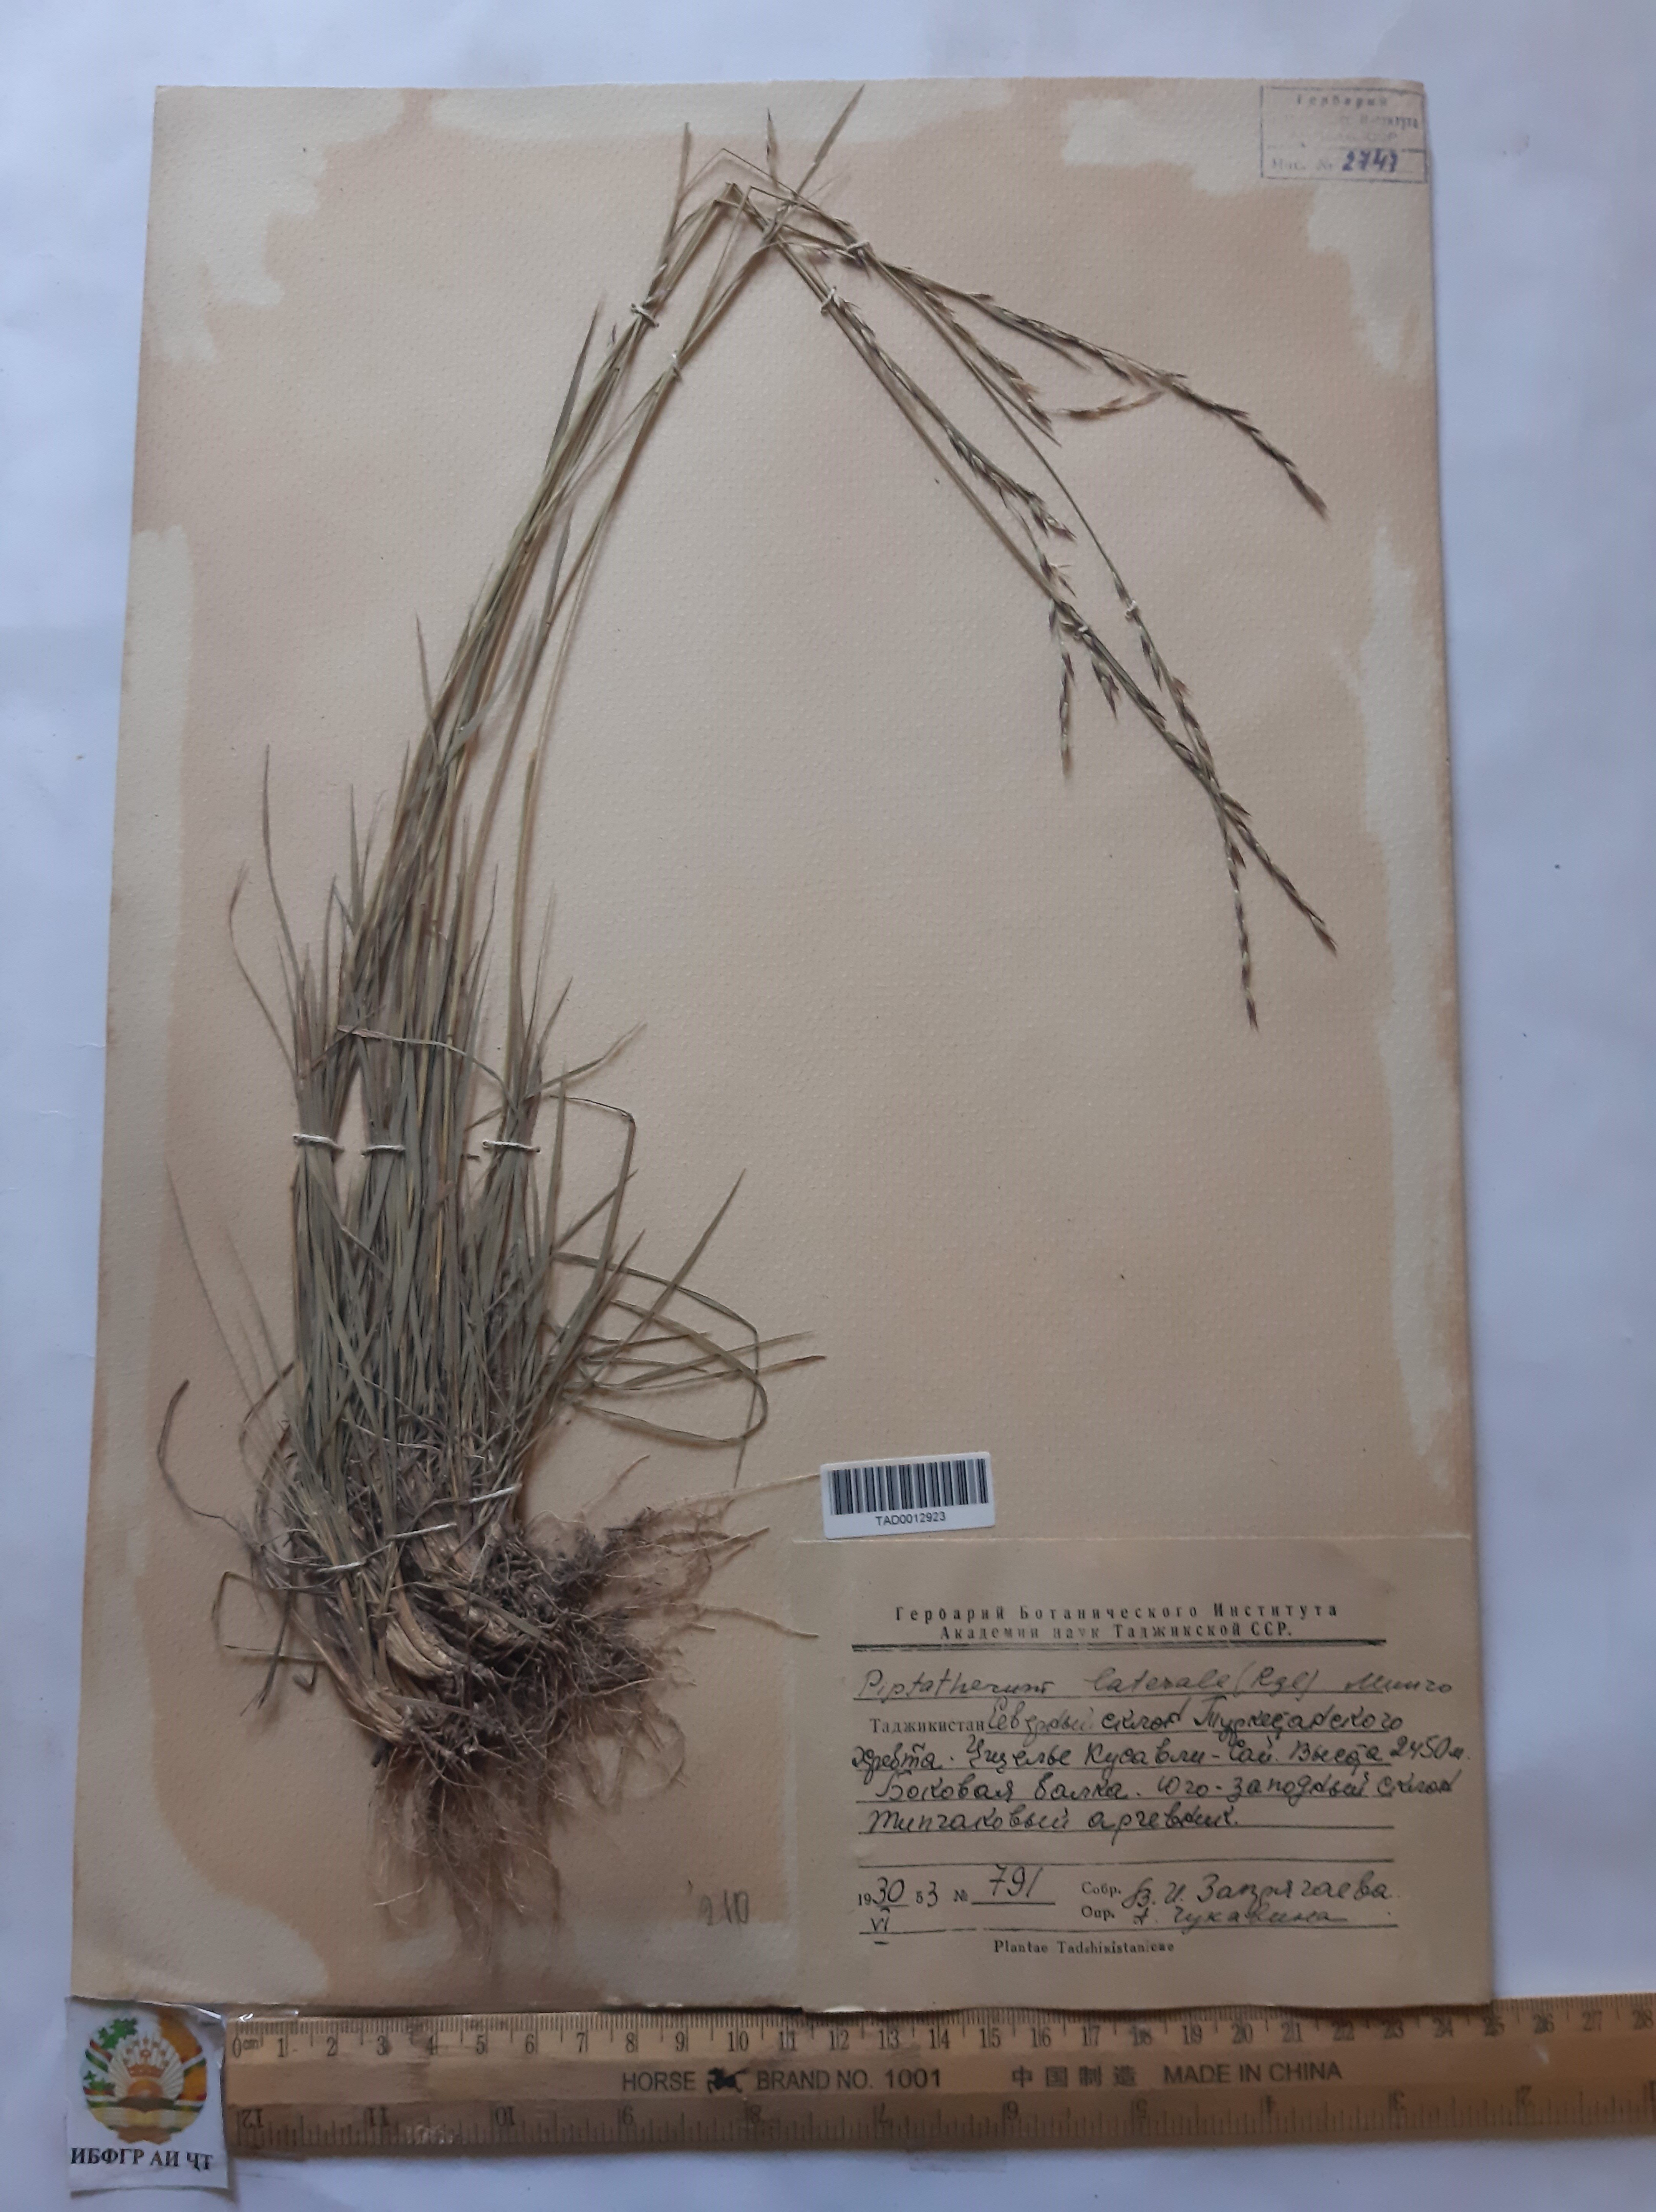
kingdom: Plantae
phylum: Tracheophyta
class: Liliopsida
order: Poales
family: Poaceae
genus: Piptatherum
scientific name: Piptatherum laterale
